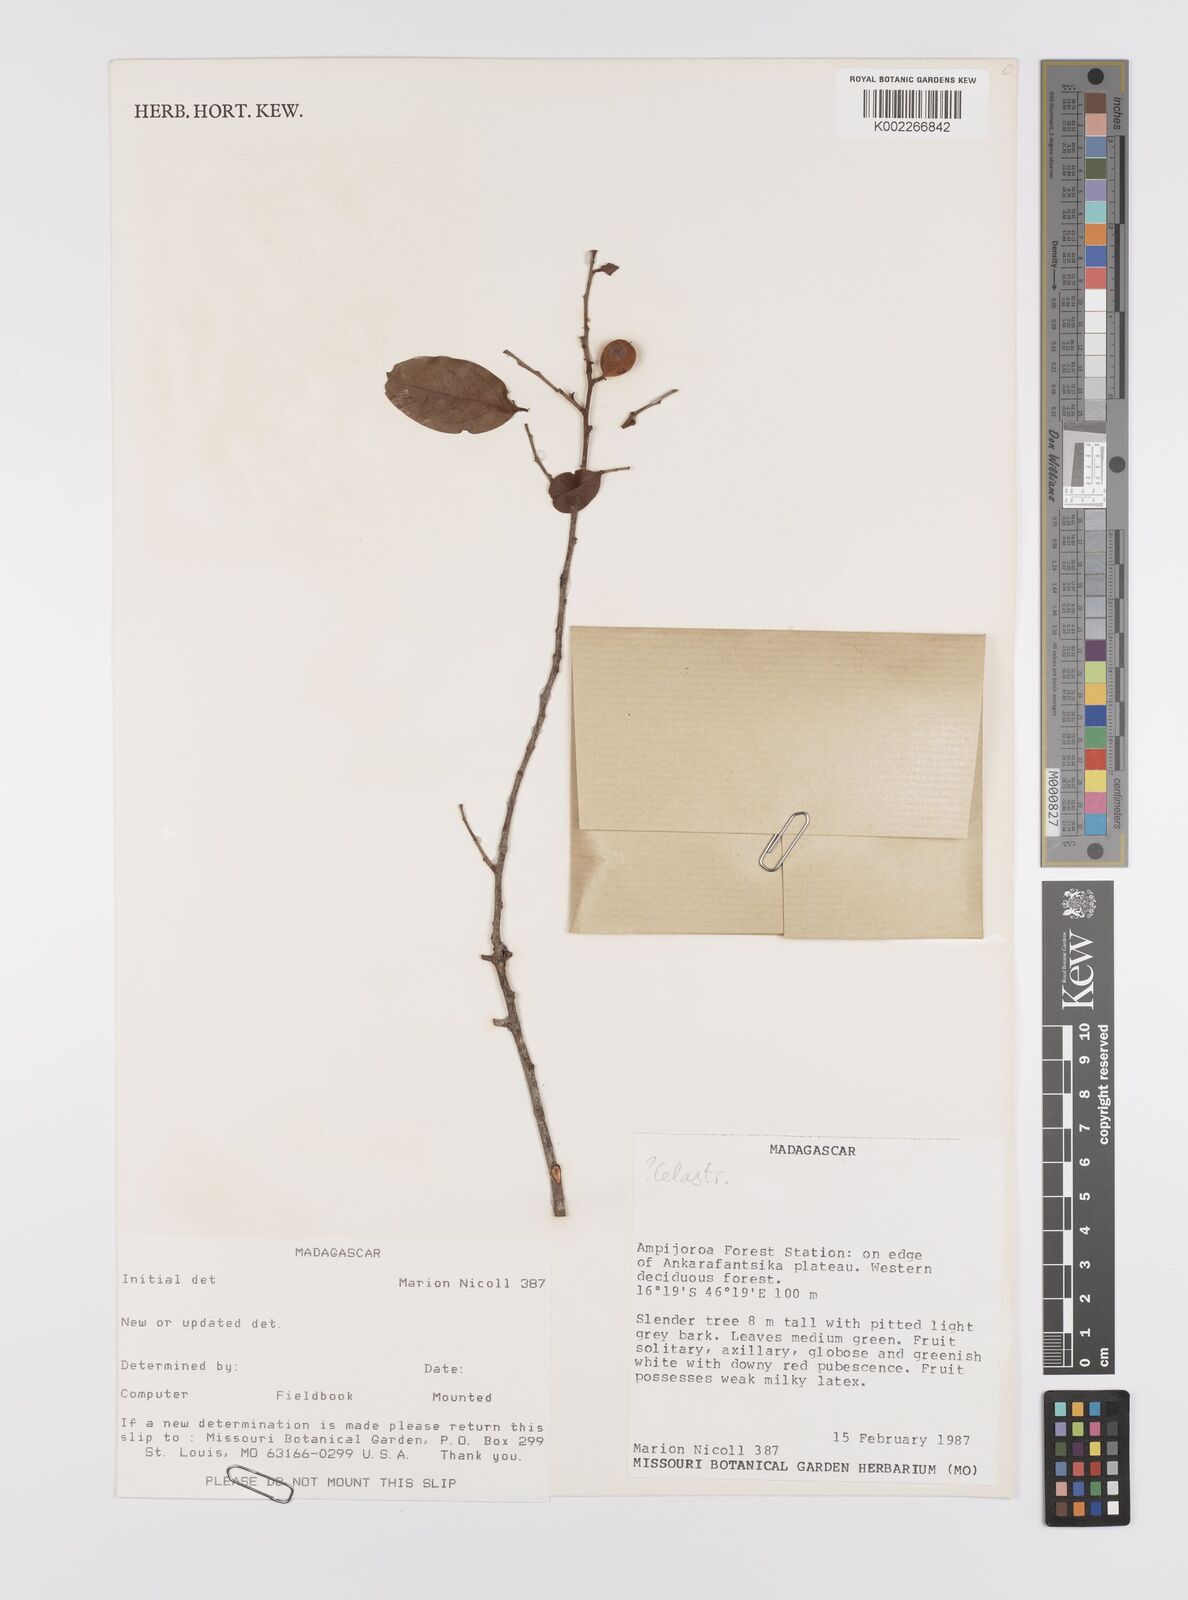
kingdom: Plantae
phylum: Tracheophyta
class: Magnoliopsida
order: Celastrales
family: Celastraceae
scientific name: Celastraceae
